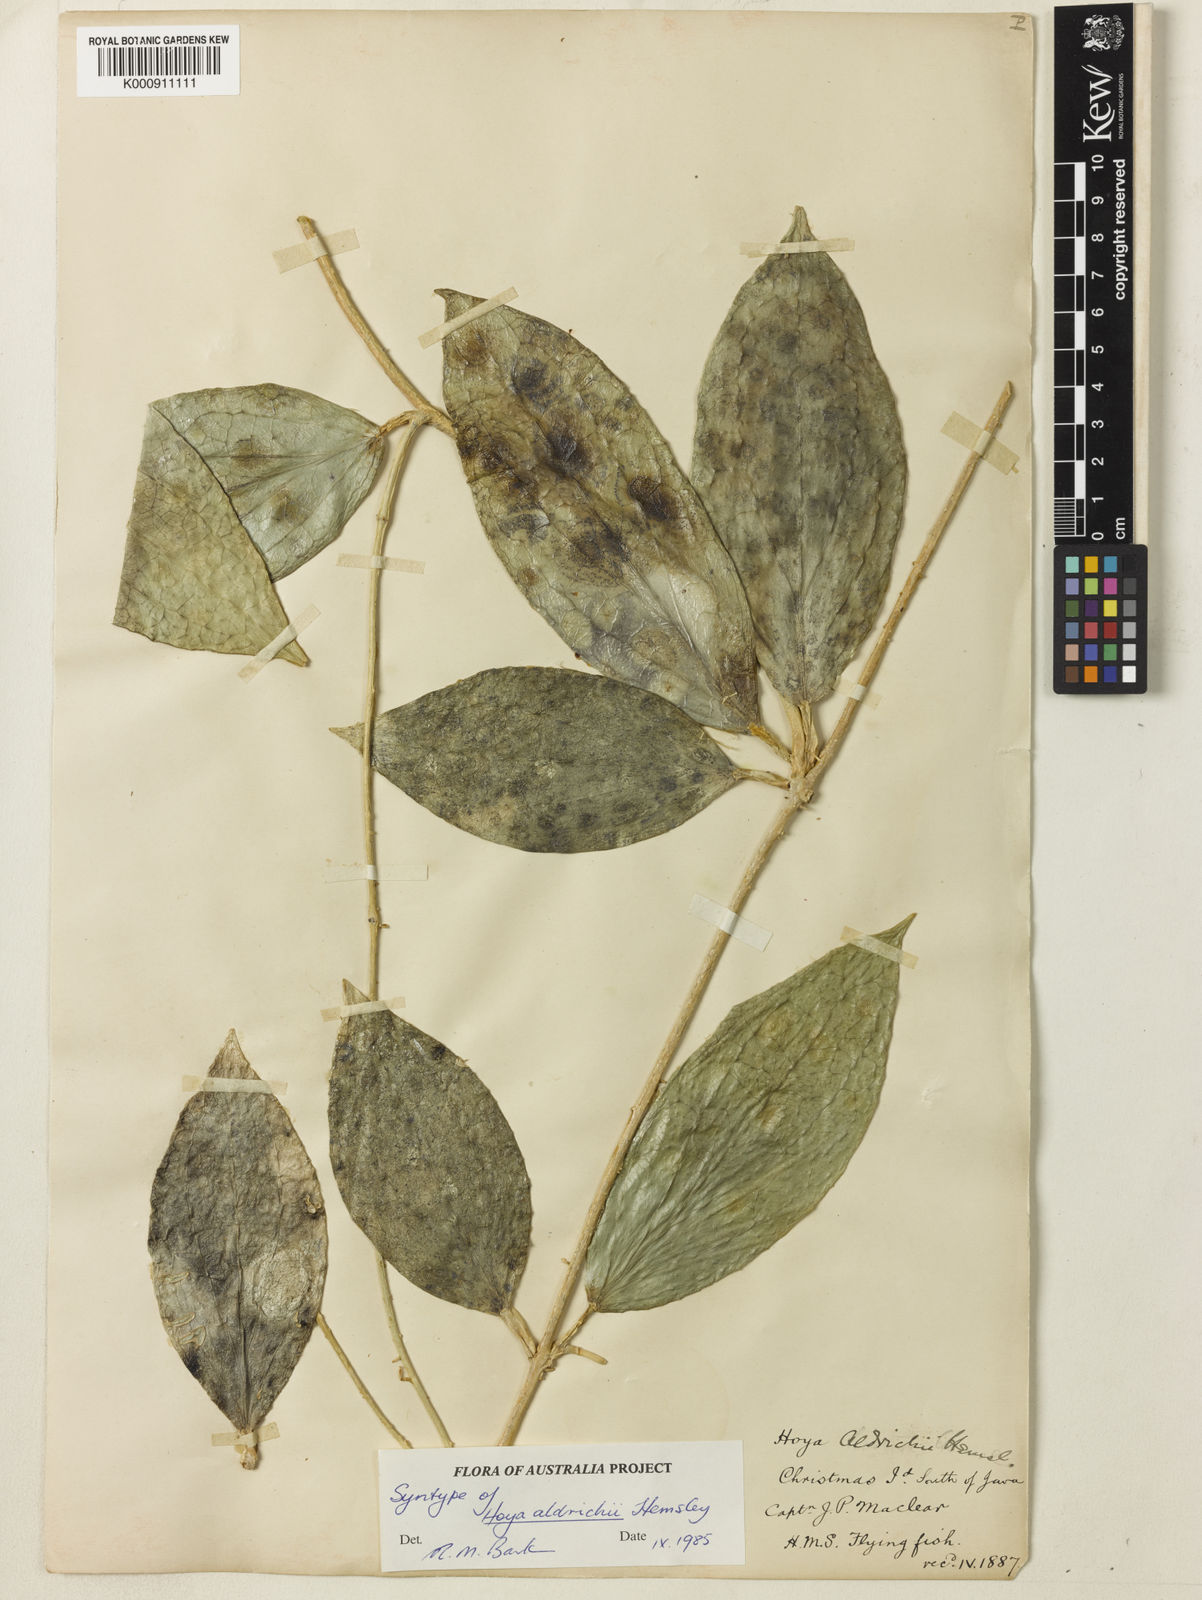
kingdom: Plantae
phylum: Tracheophyta
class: Magnoliopsida
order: Gentianales
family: Apocynaceae
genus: Hoya
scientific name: Hoya aldrichii
